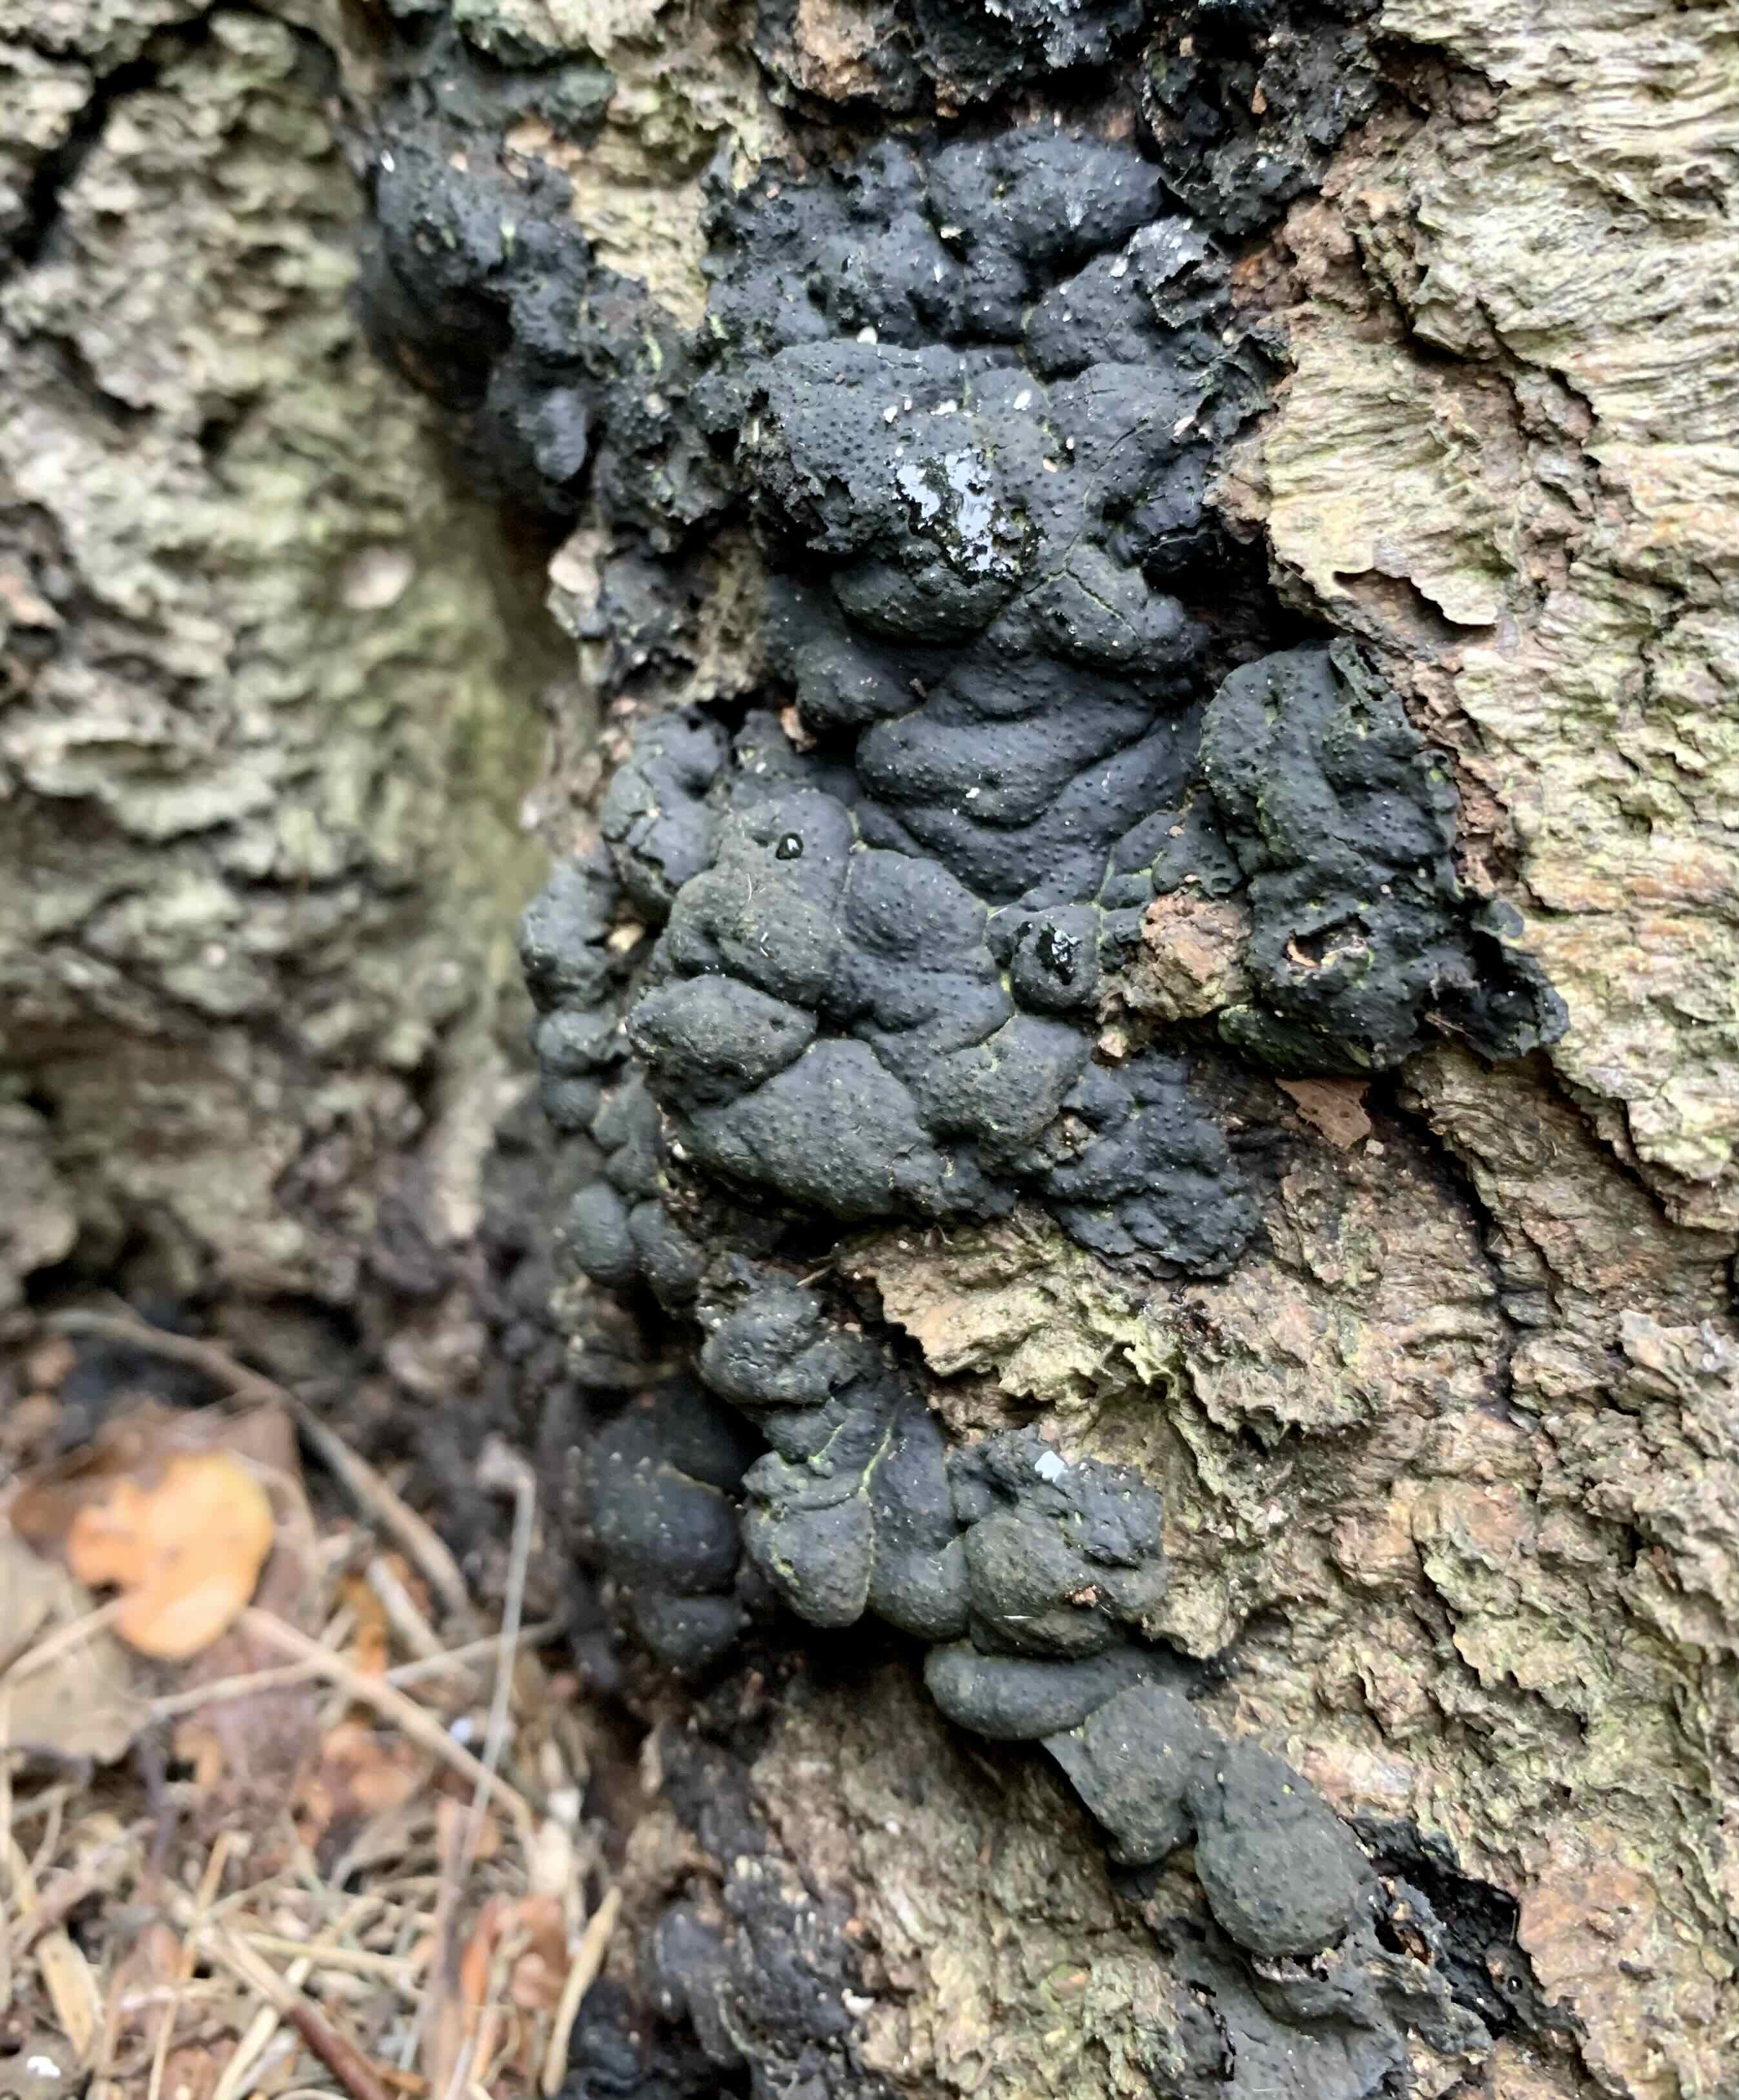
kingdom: Fungi
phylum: Ascomycota
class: Sordariomycetes
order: Xylariales
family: Xylariaceae
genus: Kretzschmaria
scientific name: Kretzschmaria deusta
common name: stor kulsvamp
